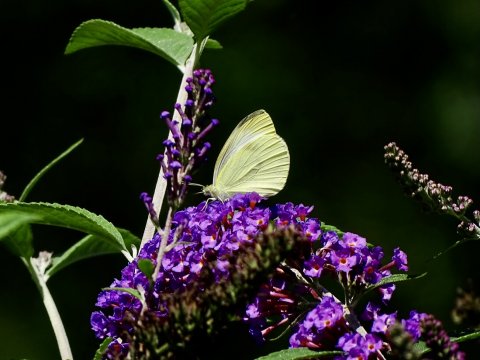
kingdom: Animalia
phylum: Arthropoda
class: Insecta
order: Lepidoptera
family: Pieridae
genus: Pieris
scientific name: Pieris rapae
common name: Cabbage White
